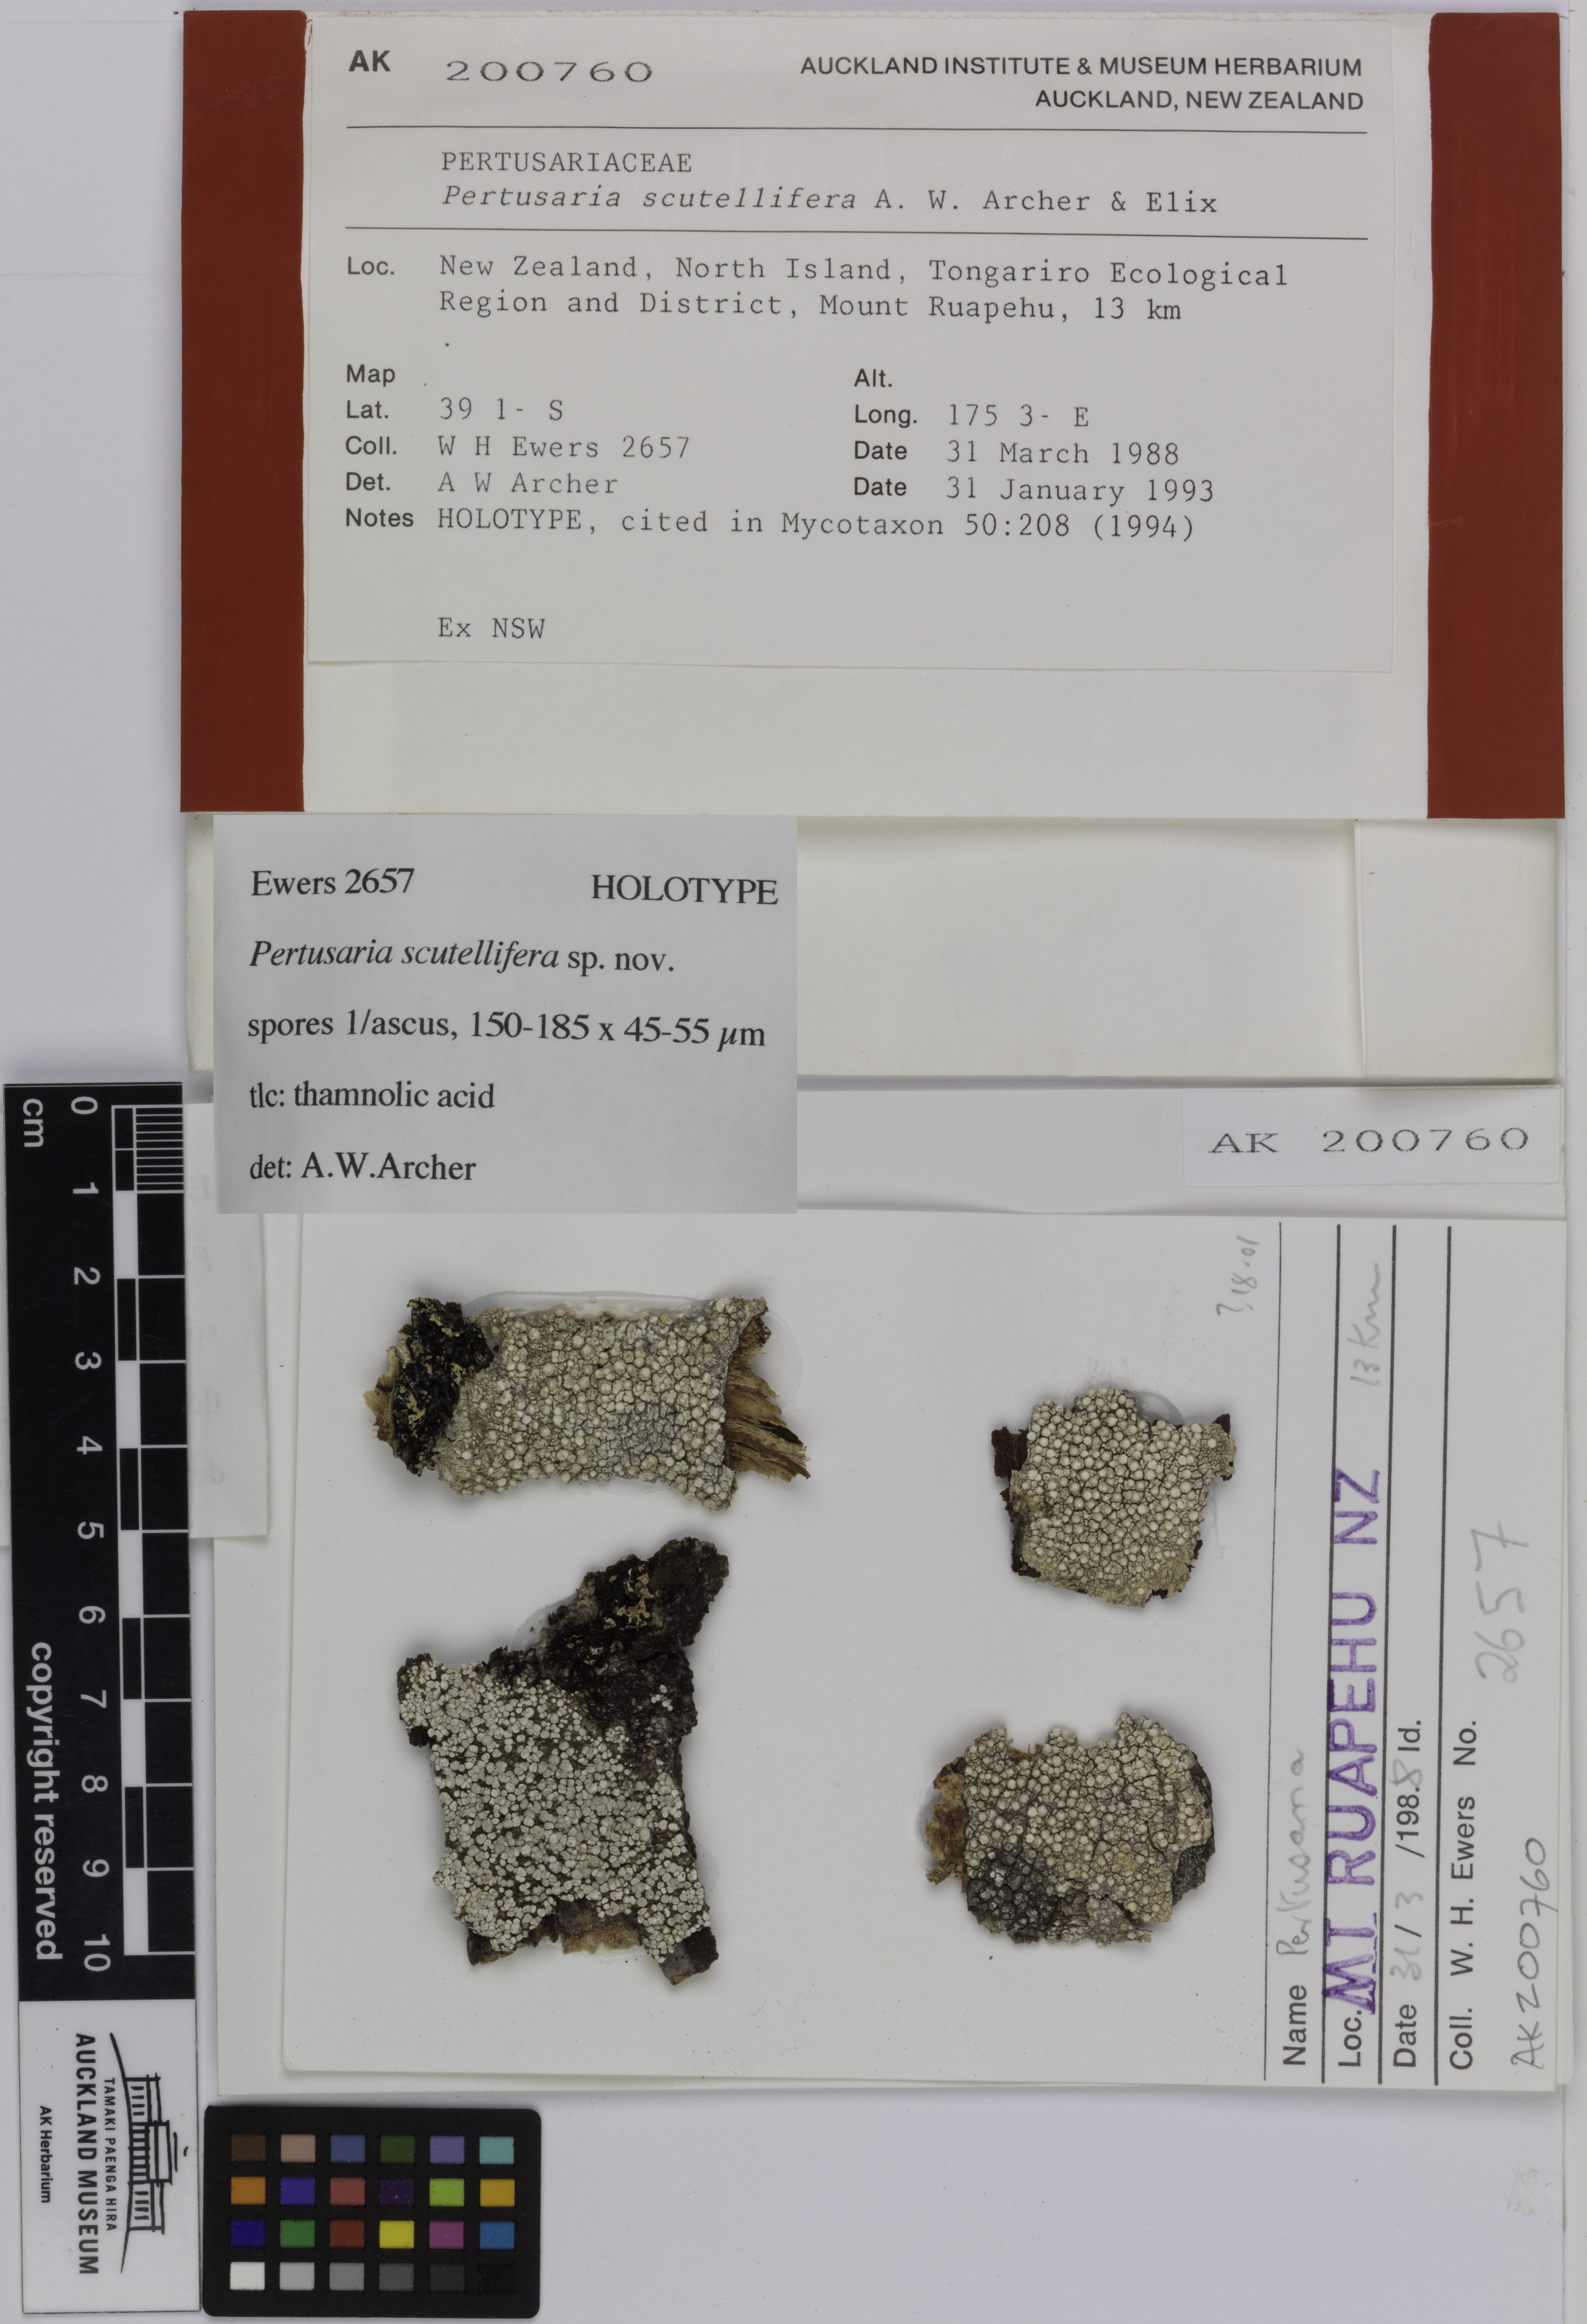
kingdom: Fungi
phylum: Ascomycota
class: Lecanoromycetes
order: Pertusariales
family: Pertusariaceae
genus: Lepra
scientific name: Lepra scutellifera
